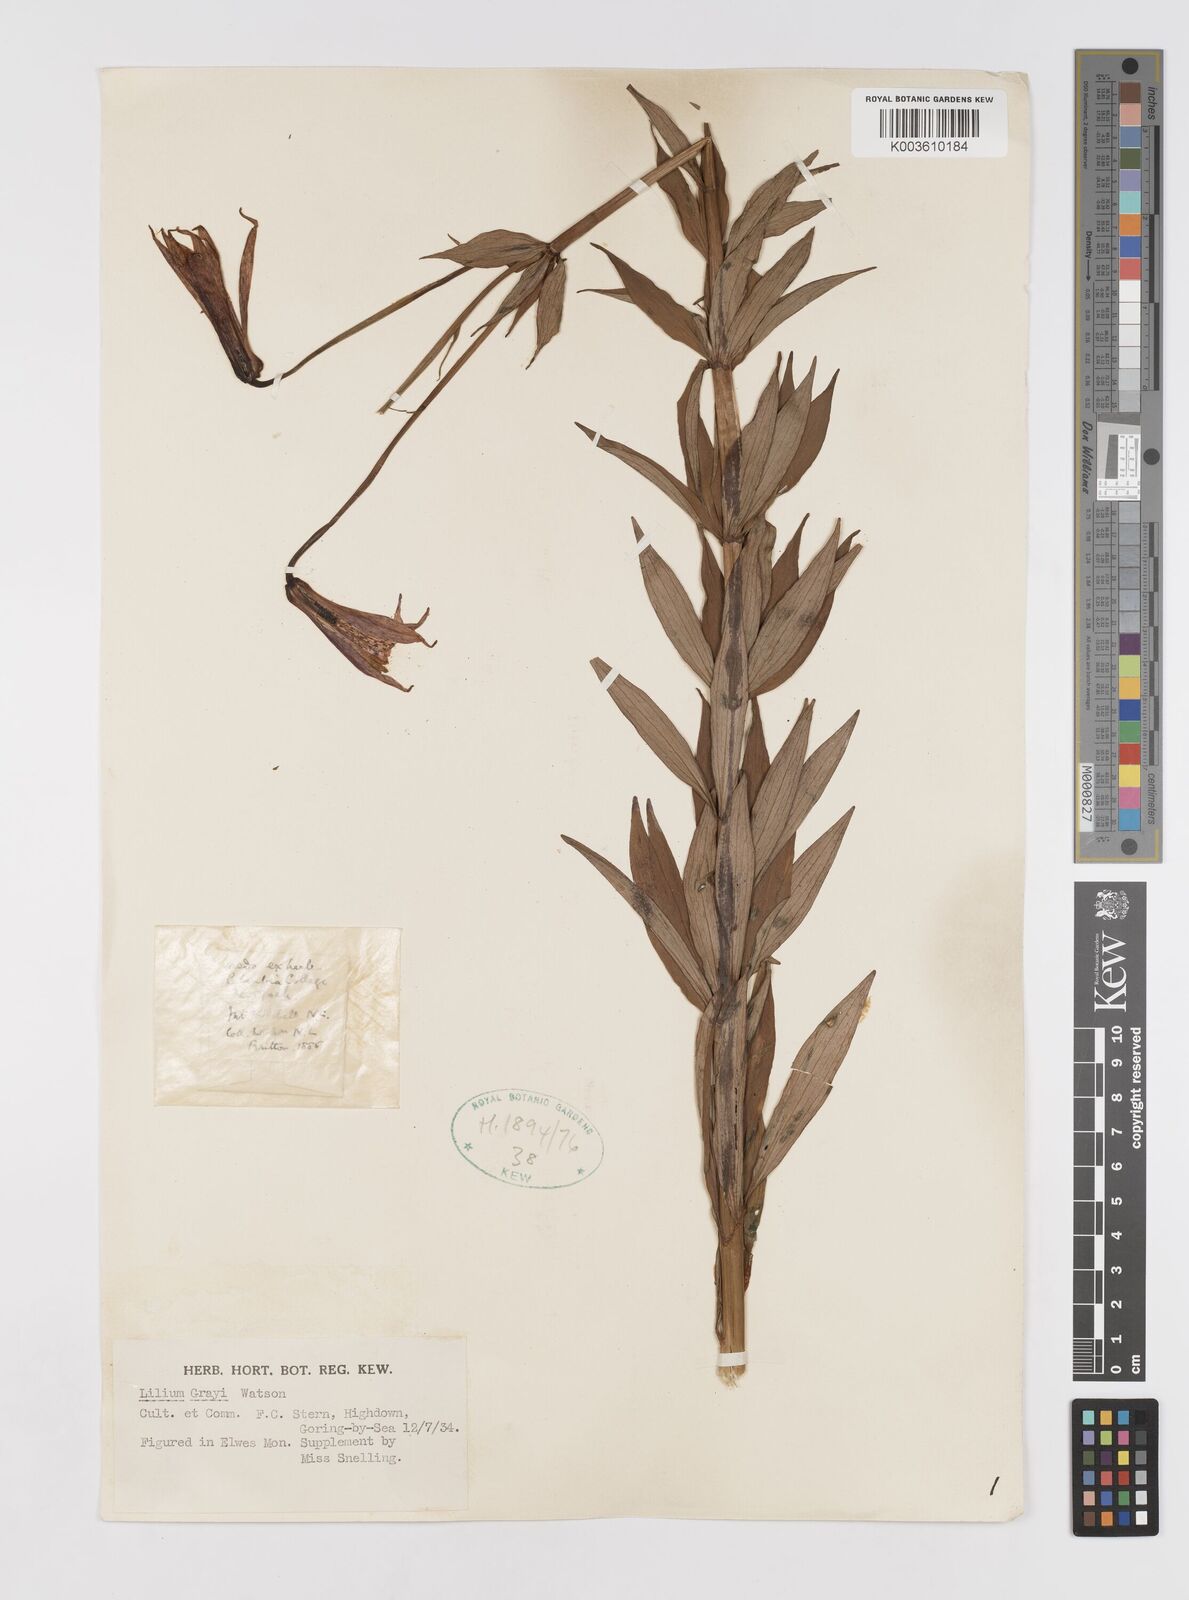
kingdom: Plantae
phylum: Tracheophyta
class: Liliopsida
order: Liliales
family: Liliaceae
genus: Lilium
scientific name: Lilium grayi
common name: Gray's lily
